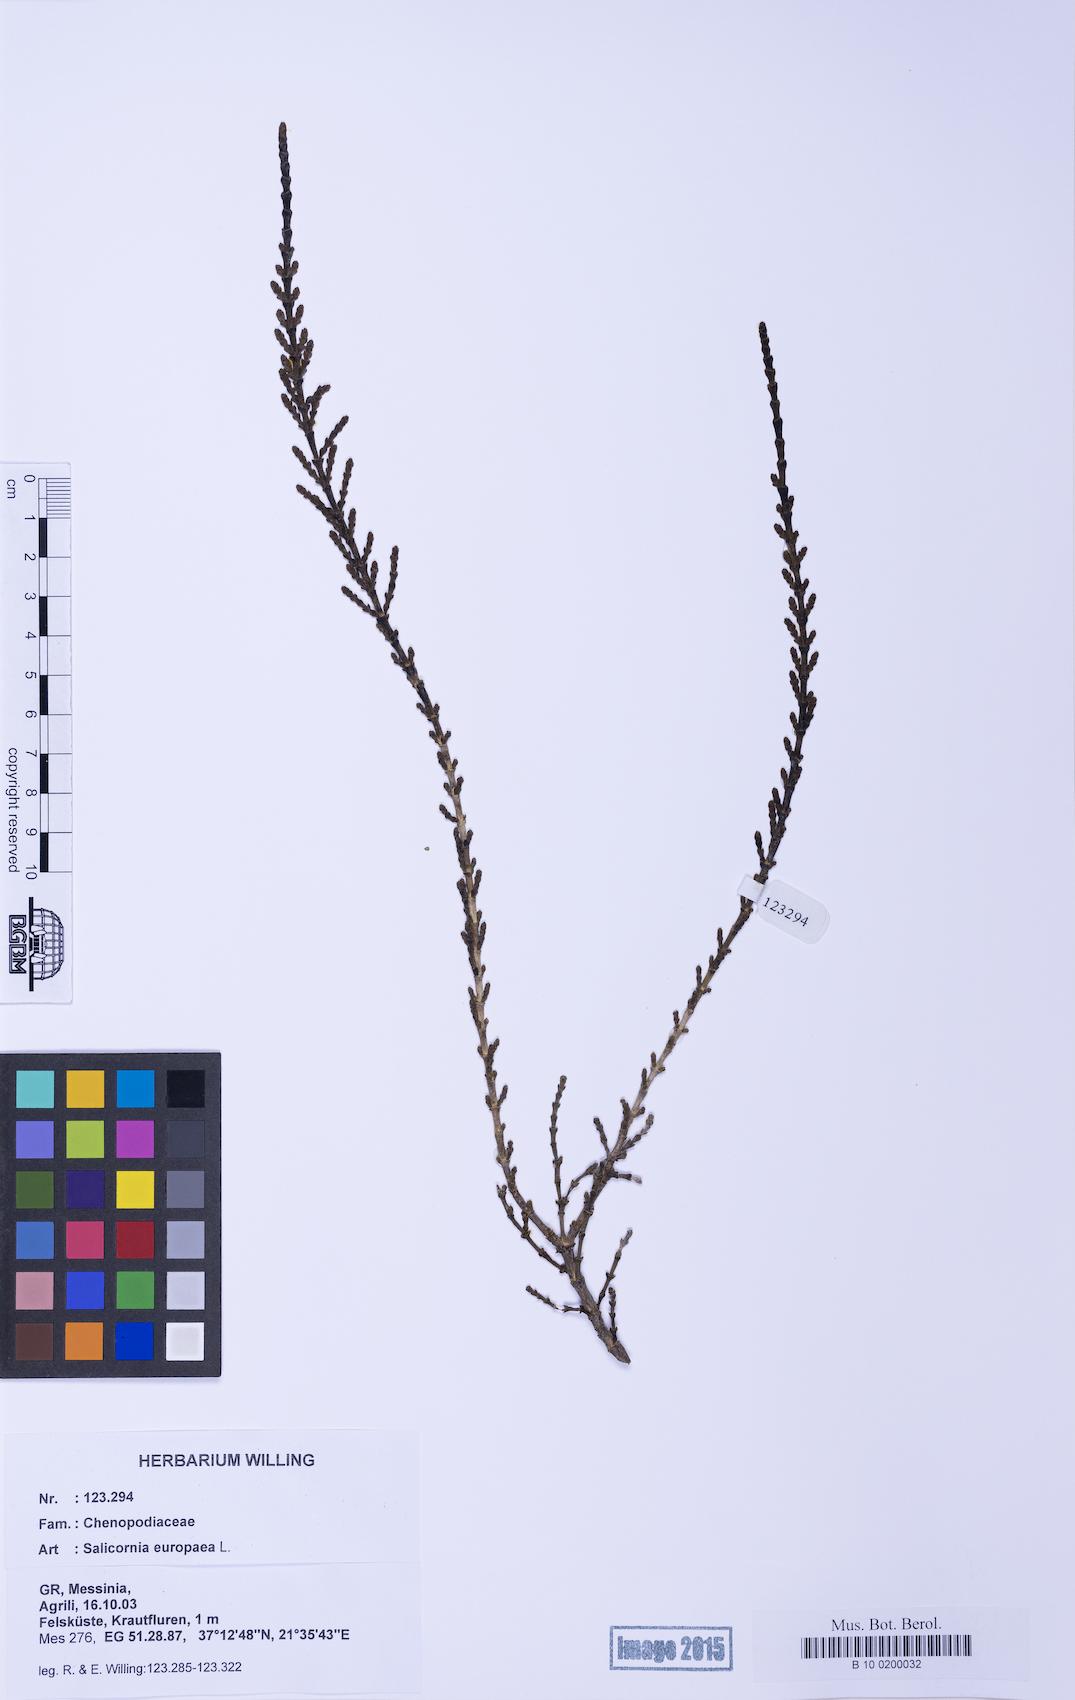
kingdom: Plantae
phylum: Tracheophyta
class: Magnoliopsida
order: Caryophyllales
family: Amaranthaceae
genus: Salicornia
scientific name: Salicornia europaea
